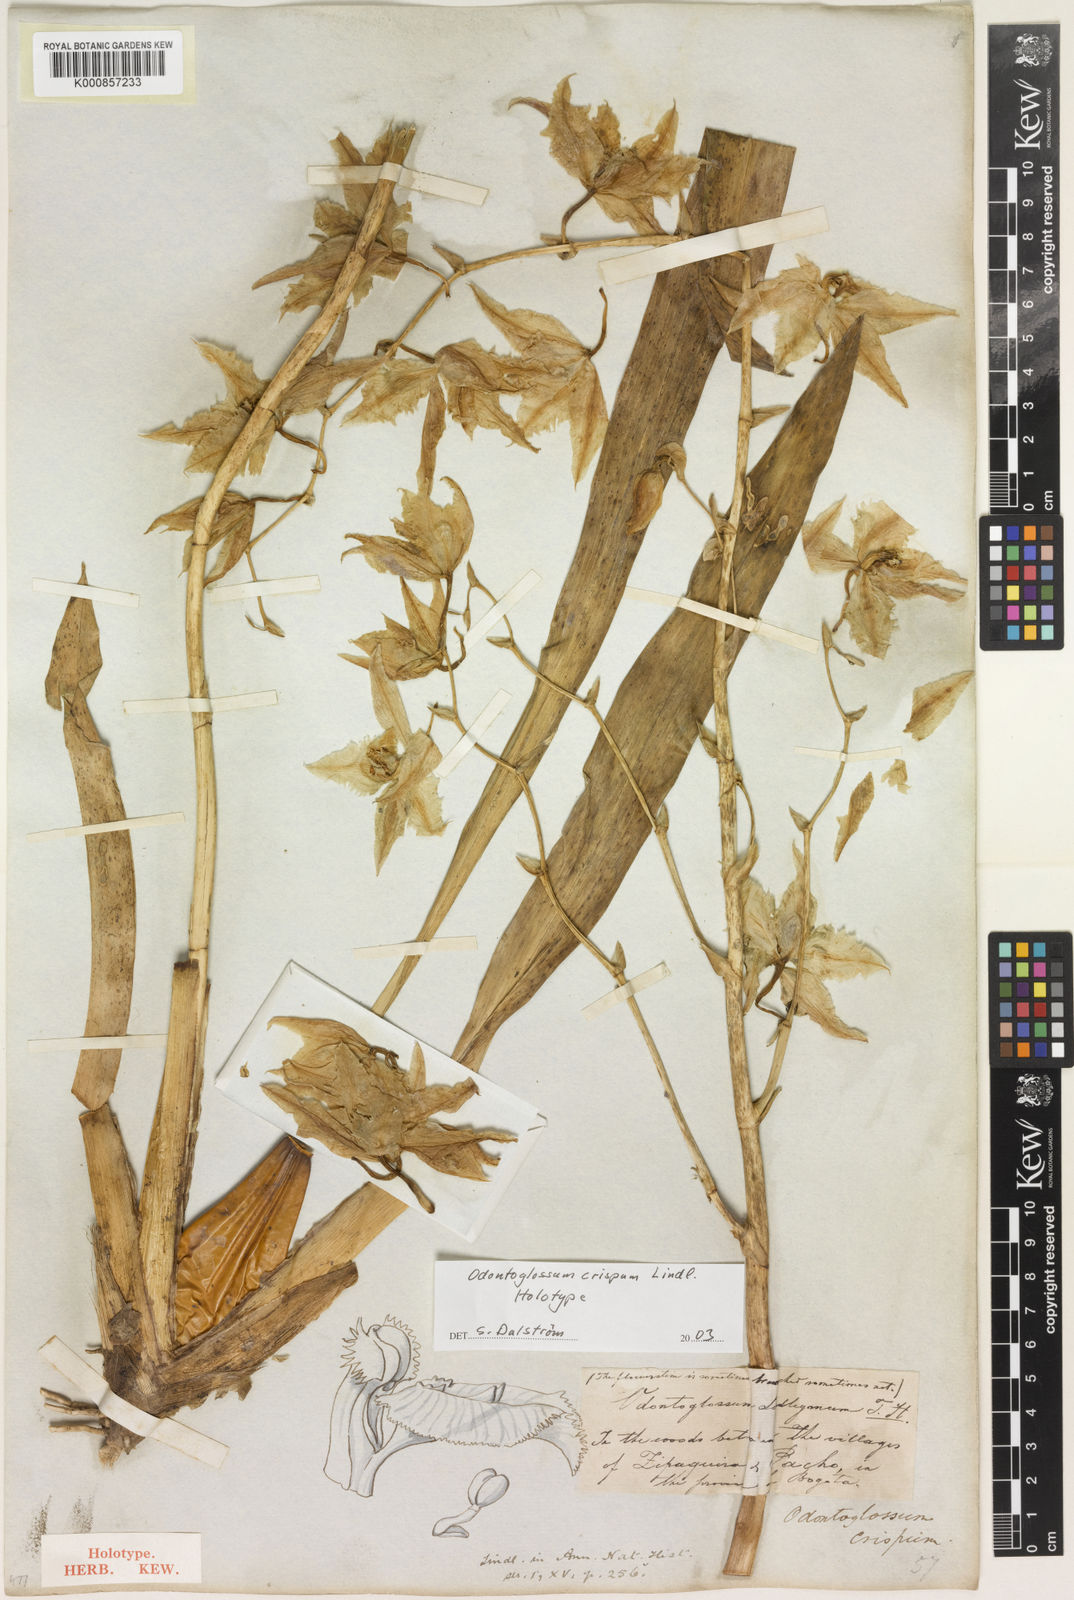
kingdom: Plantae
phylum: Tracheophyta
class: Liliopsida
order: Asparagales
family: Orchidaceae
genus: Oncidium
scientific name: Oncidium alexandrae
